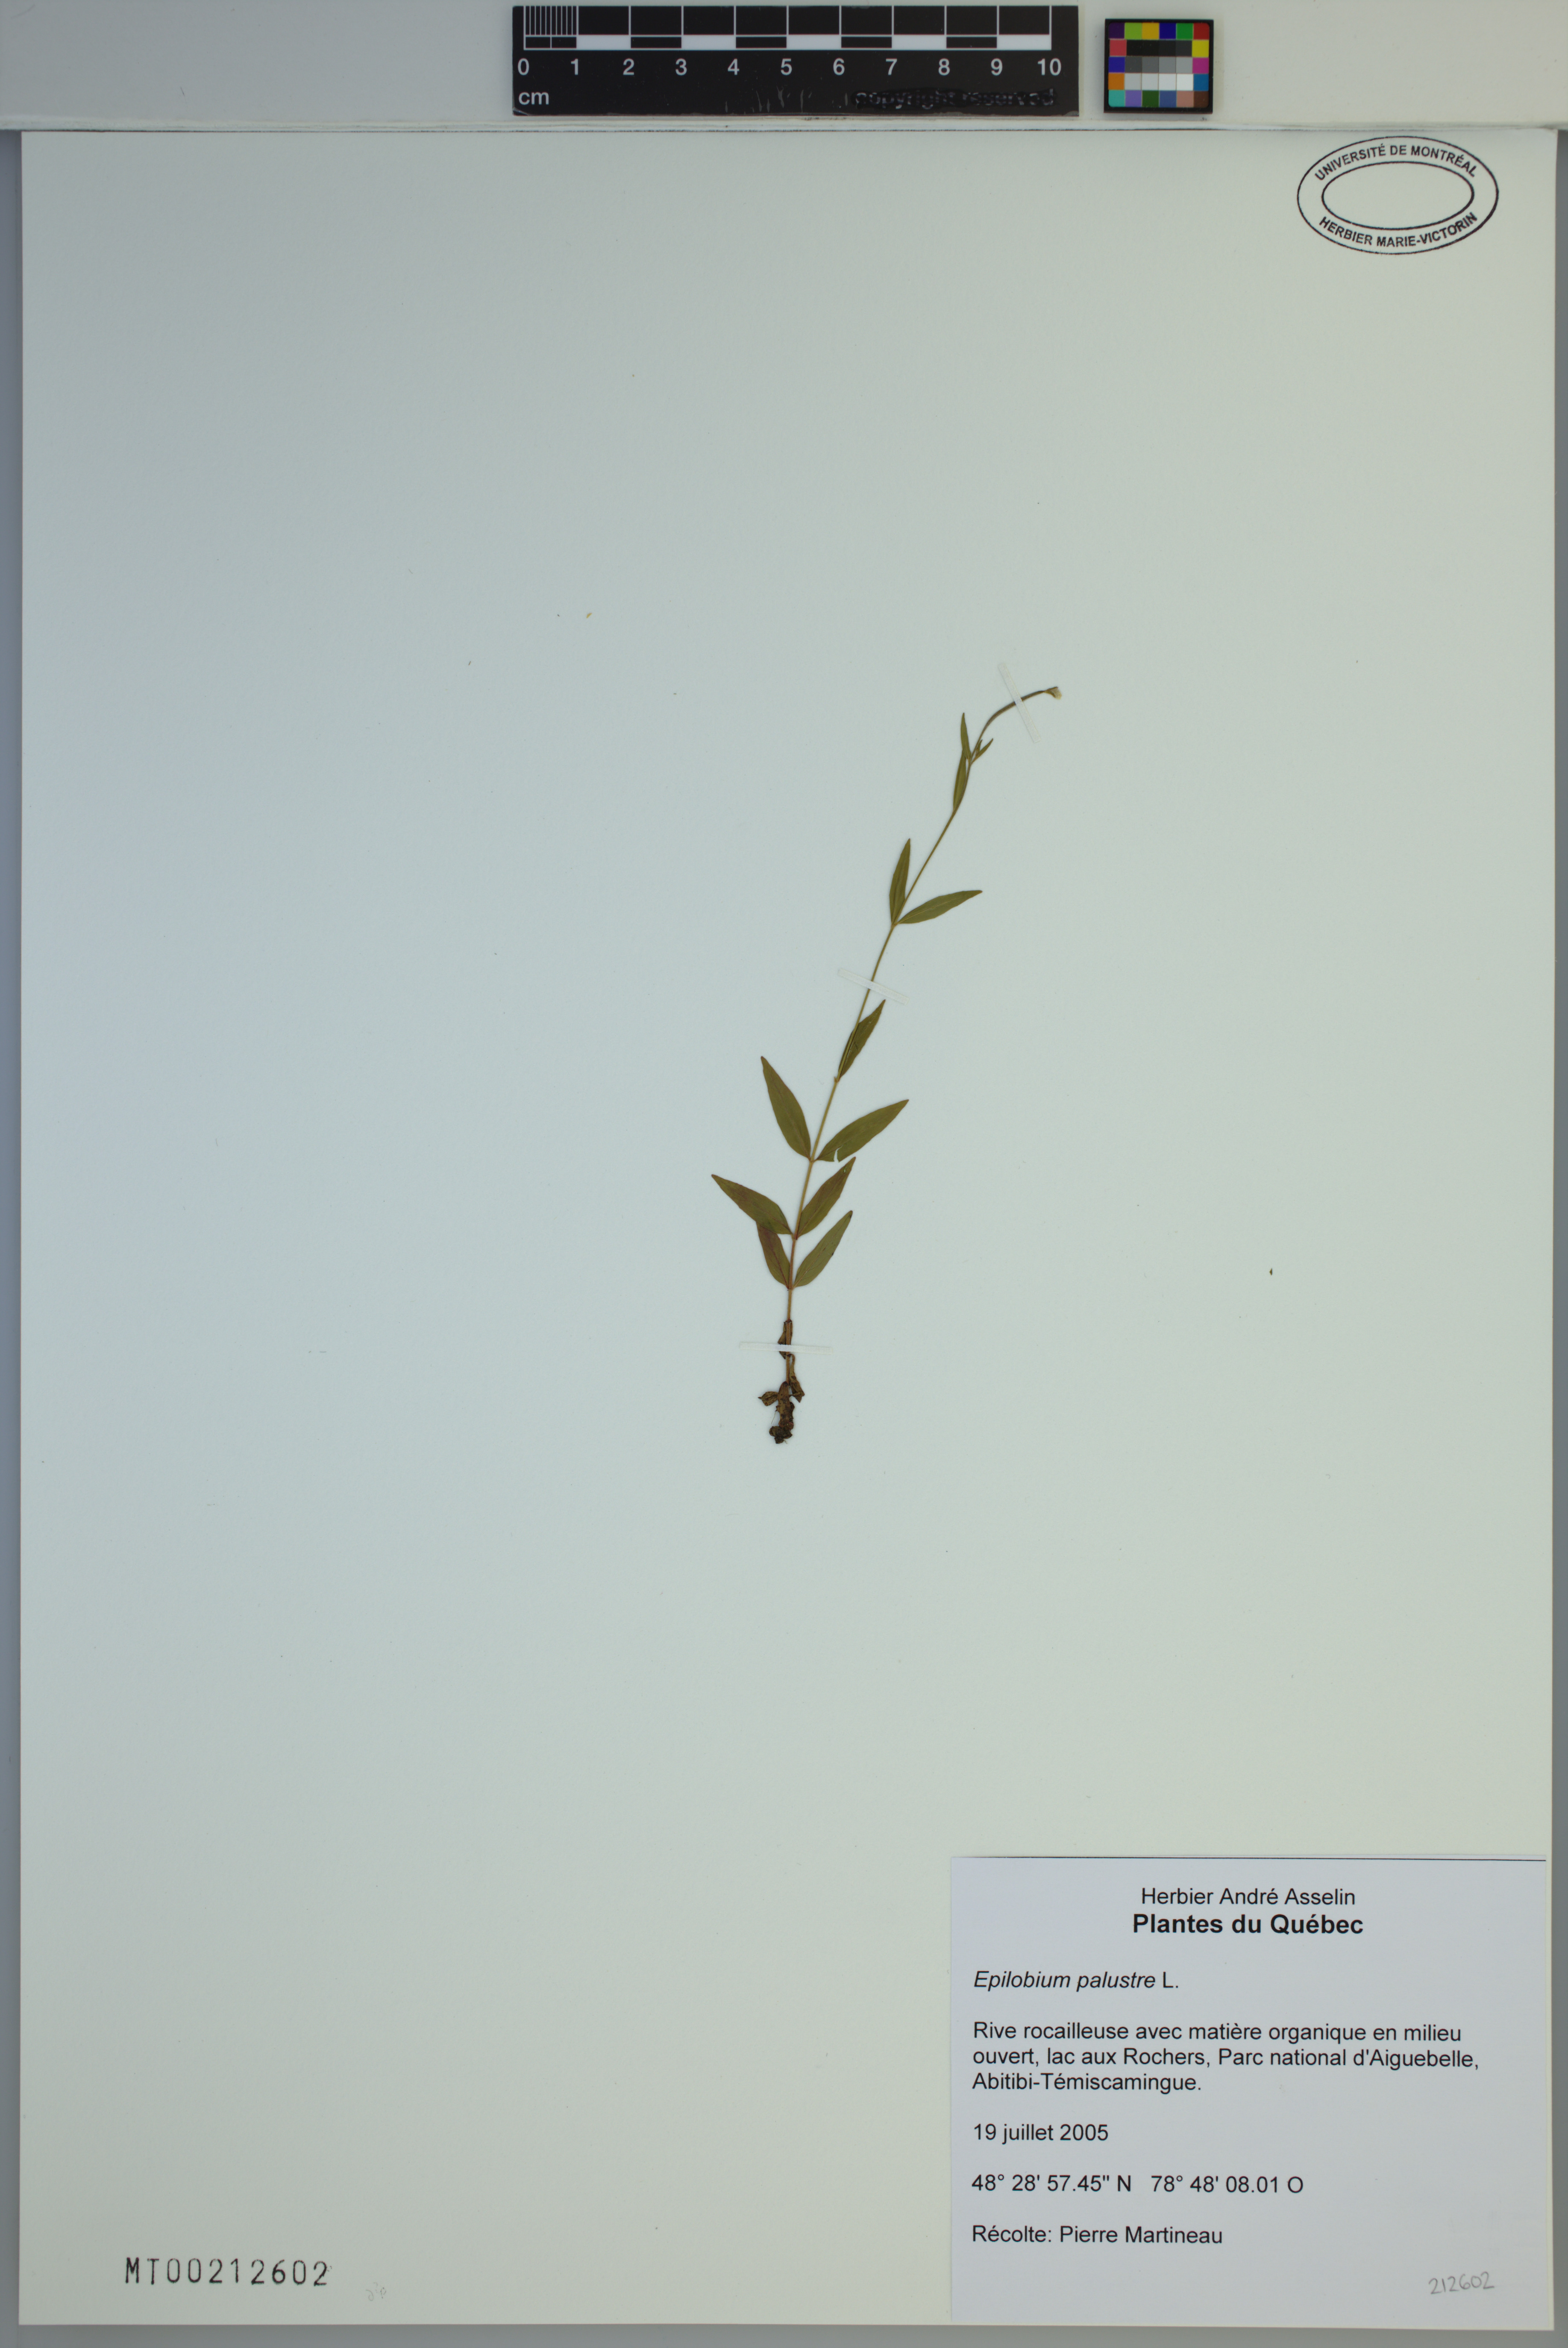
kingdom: Plantae
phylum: Tracheophyta
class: Magnoliopsida
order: Myrtales
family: Onagraceae
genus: Epilobium
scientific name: Epilobium palustre
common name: Marsh willowherb
